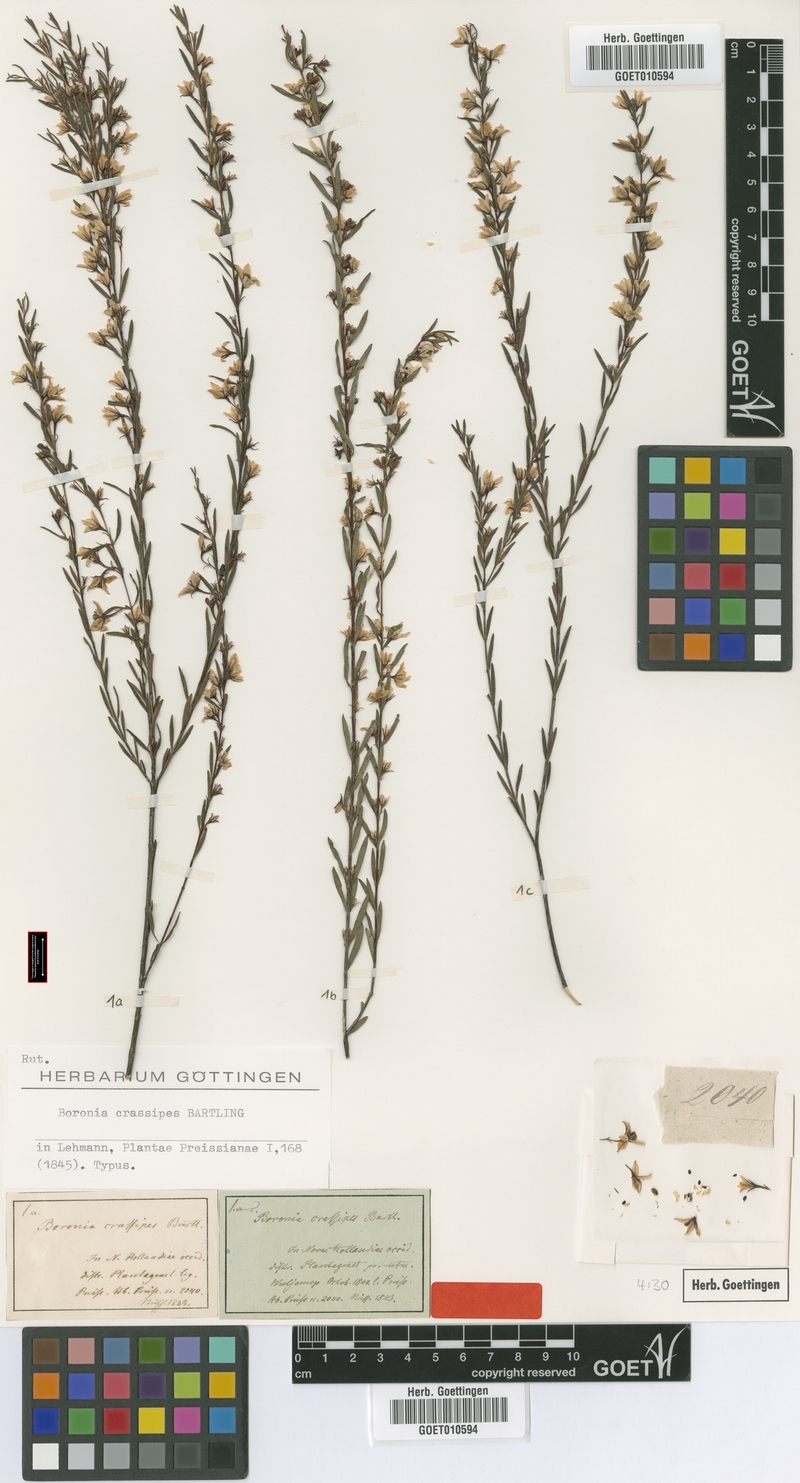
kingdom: Plantae
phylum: Tracheophyta
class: Magnoliopsida
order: Sapindales
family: Rutaceae
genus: Boronia
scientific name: Boronia crassipes
